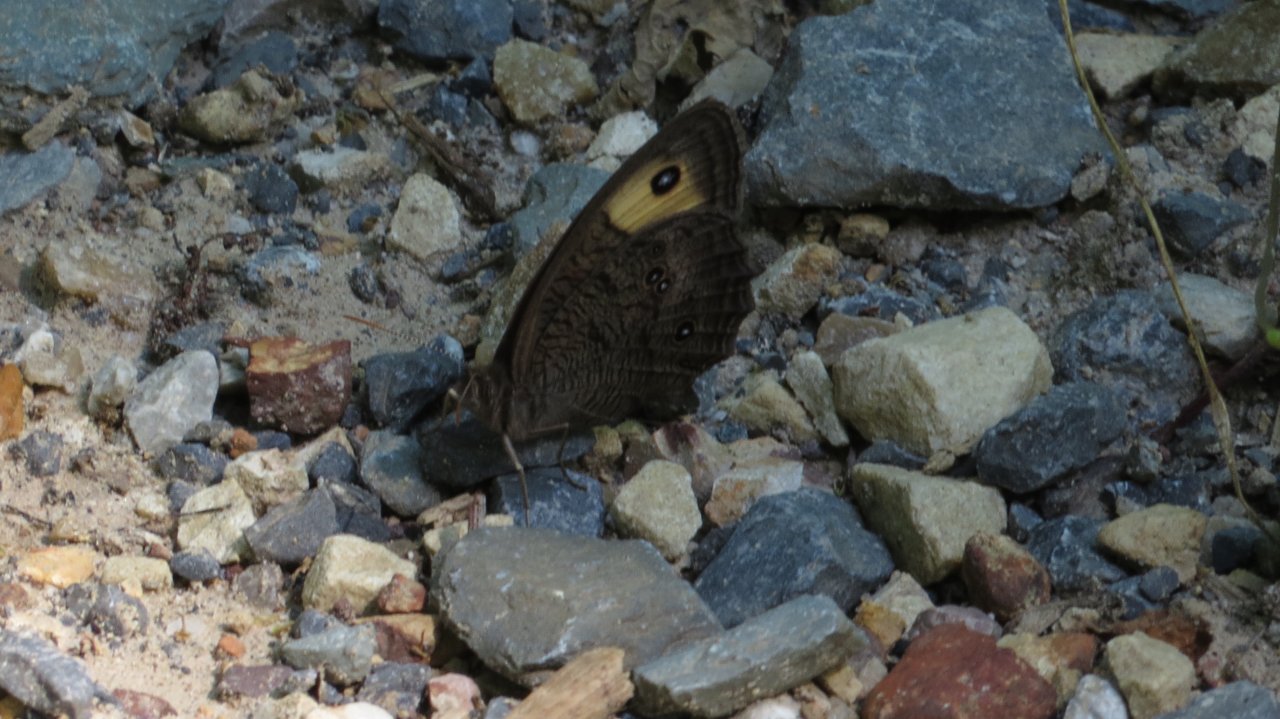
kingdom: Animalia
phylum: Arthropoda
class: Insecta
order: Lepidoptera
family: Nymphalidae
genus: Cercyonis
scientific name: Cercyonis pegala
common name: Common Wood-Nymph
